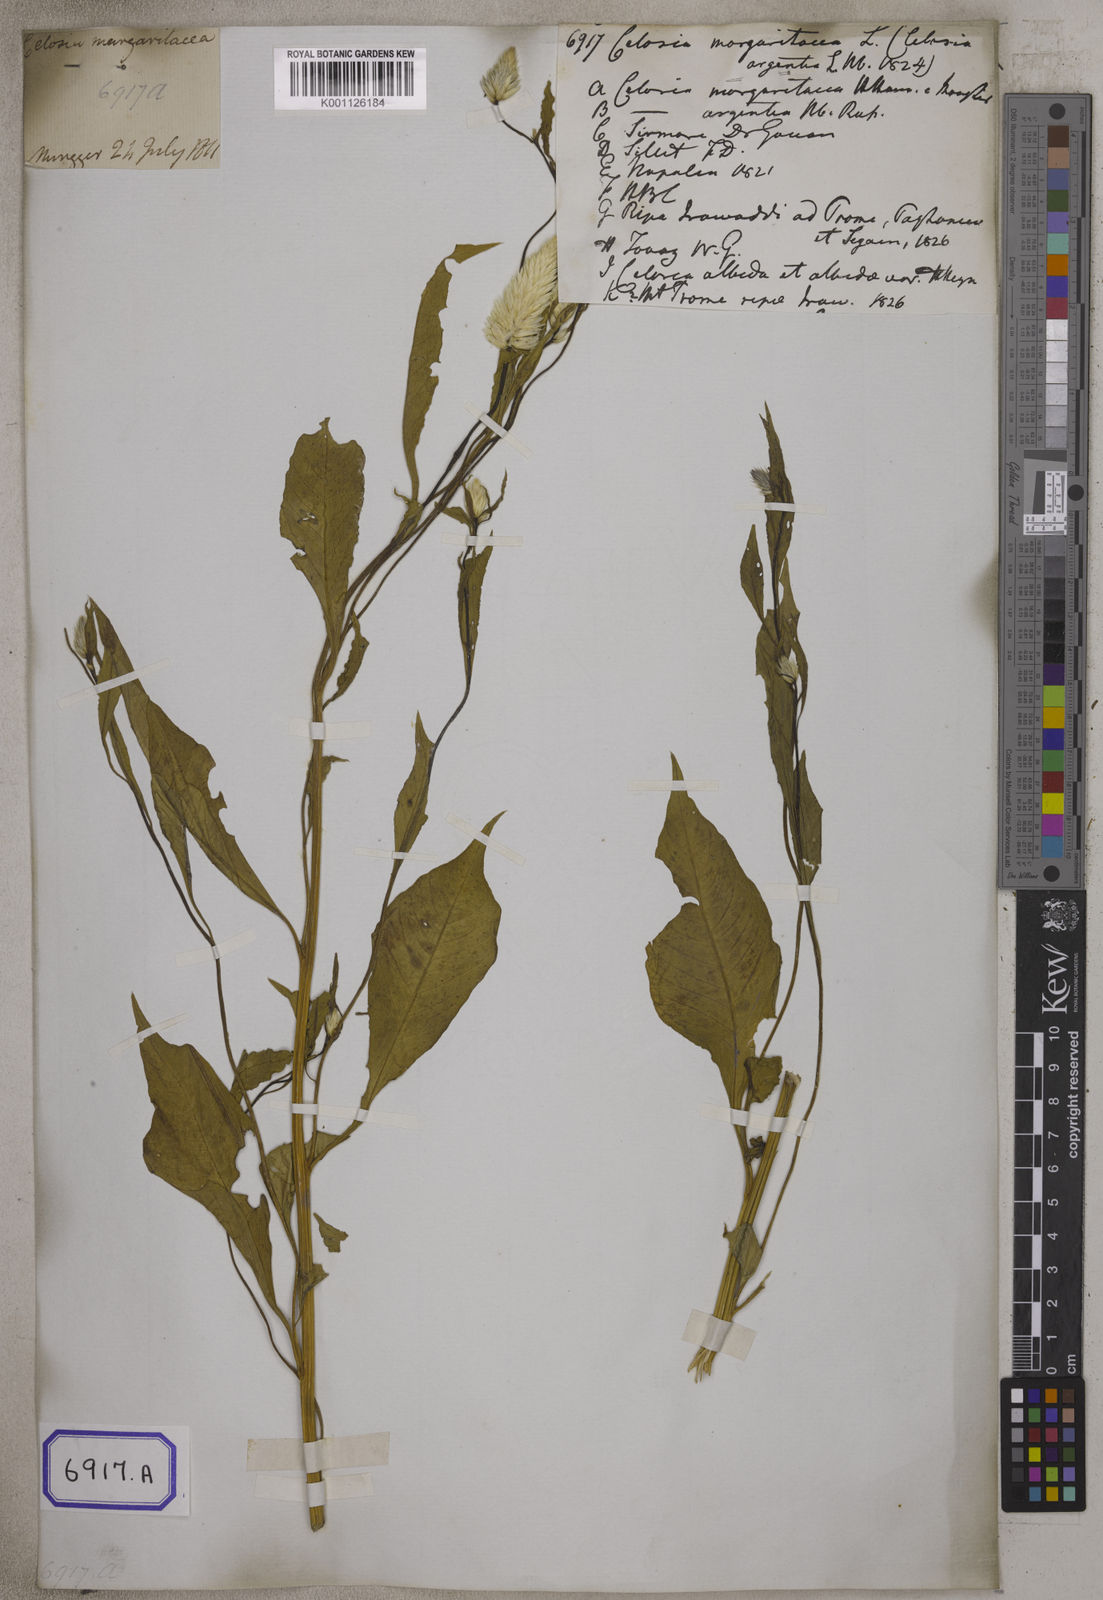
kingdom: Plantae
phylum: Tracheophyta
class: Magnoliopsida
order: Caryophyllales
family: Amaranthaceae
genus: Celosia
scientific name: Celosia argentea
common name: Feather cockscomb
